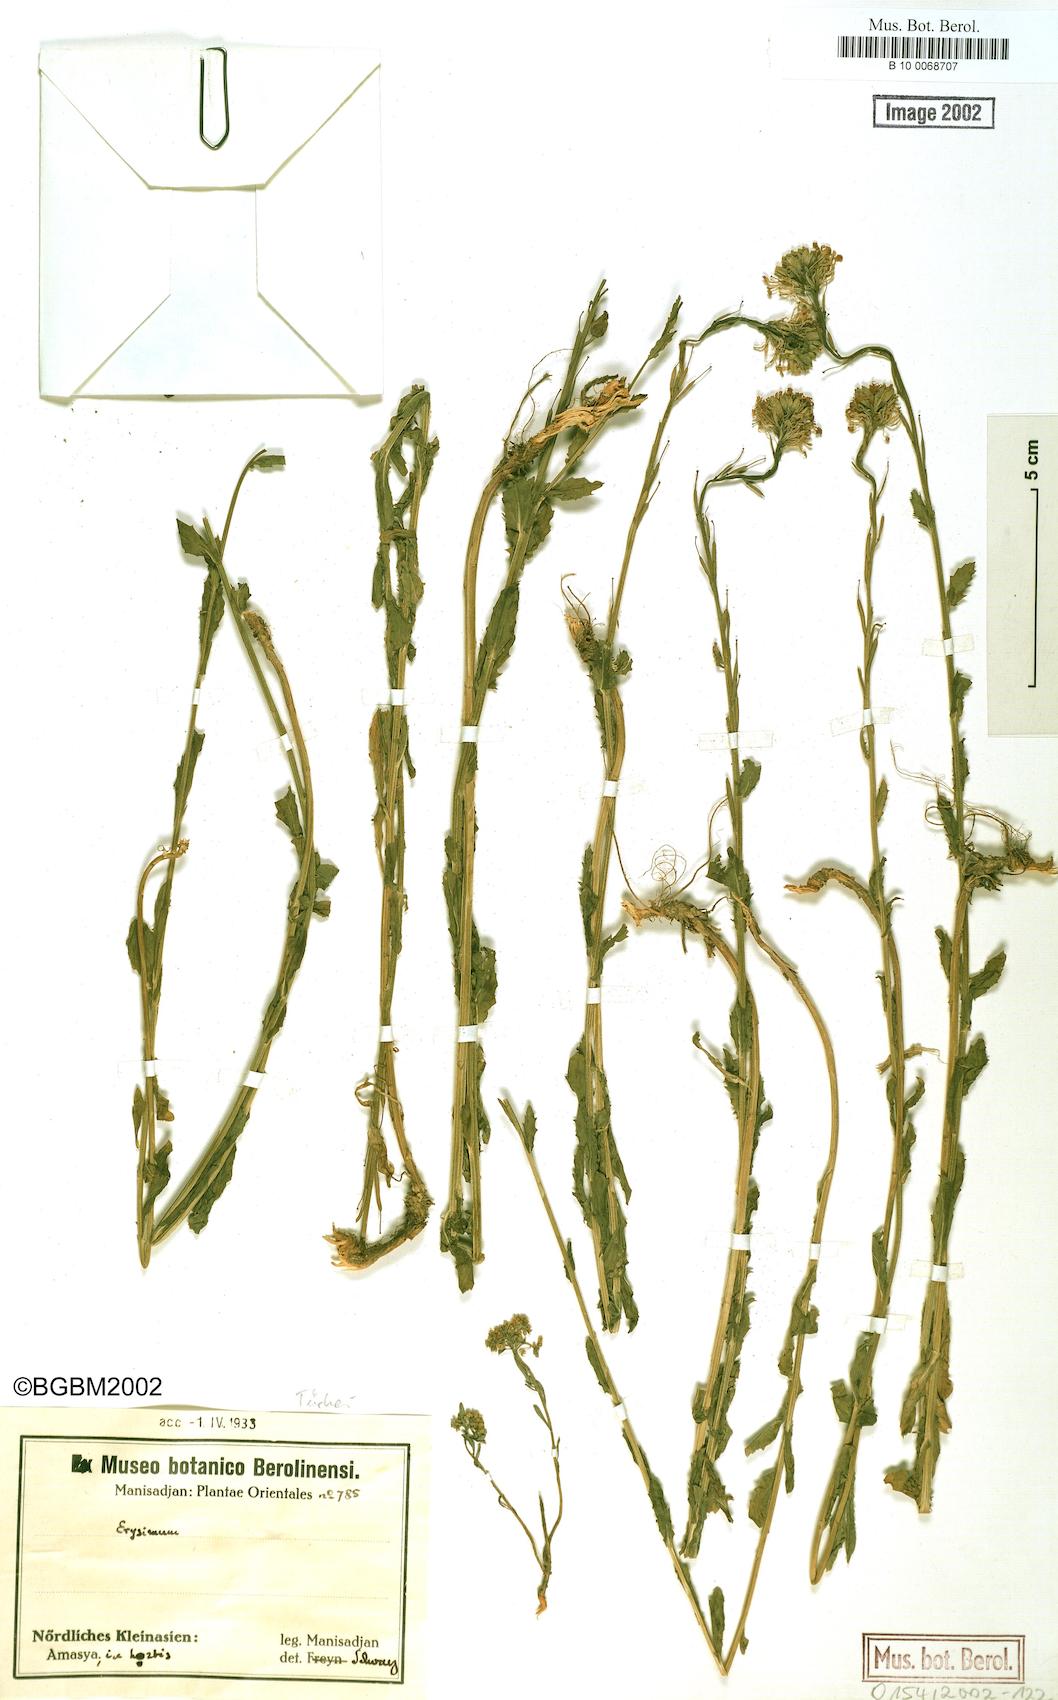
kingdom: Plantae
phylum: Tracheophyta
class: Magnoliopsida
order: Brassicales
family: Brassicaceae
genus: Erysimum
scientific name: Erysimum cuspidatum
